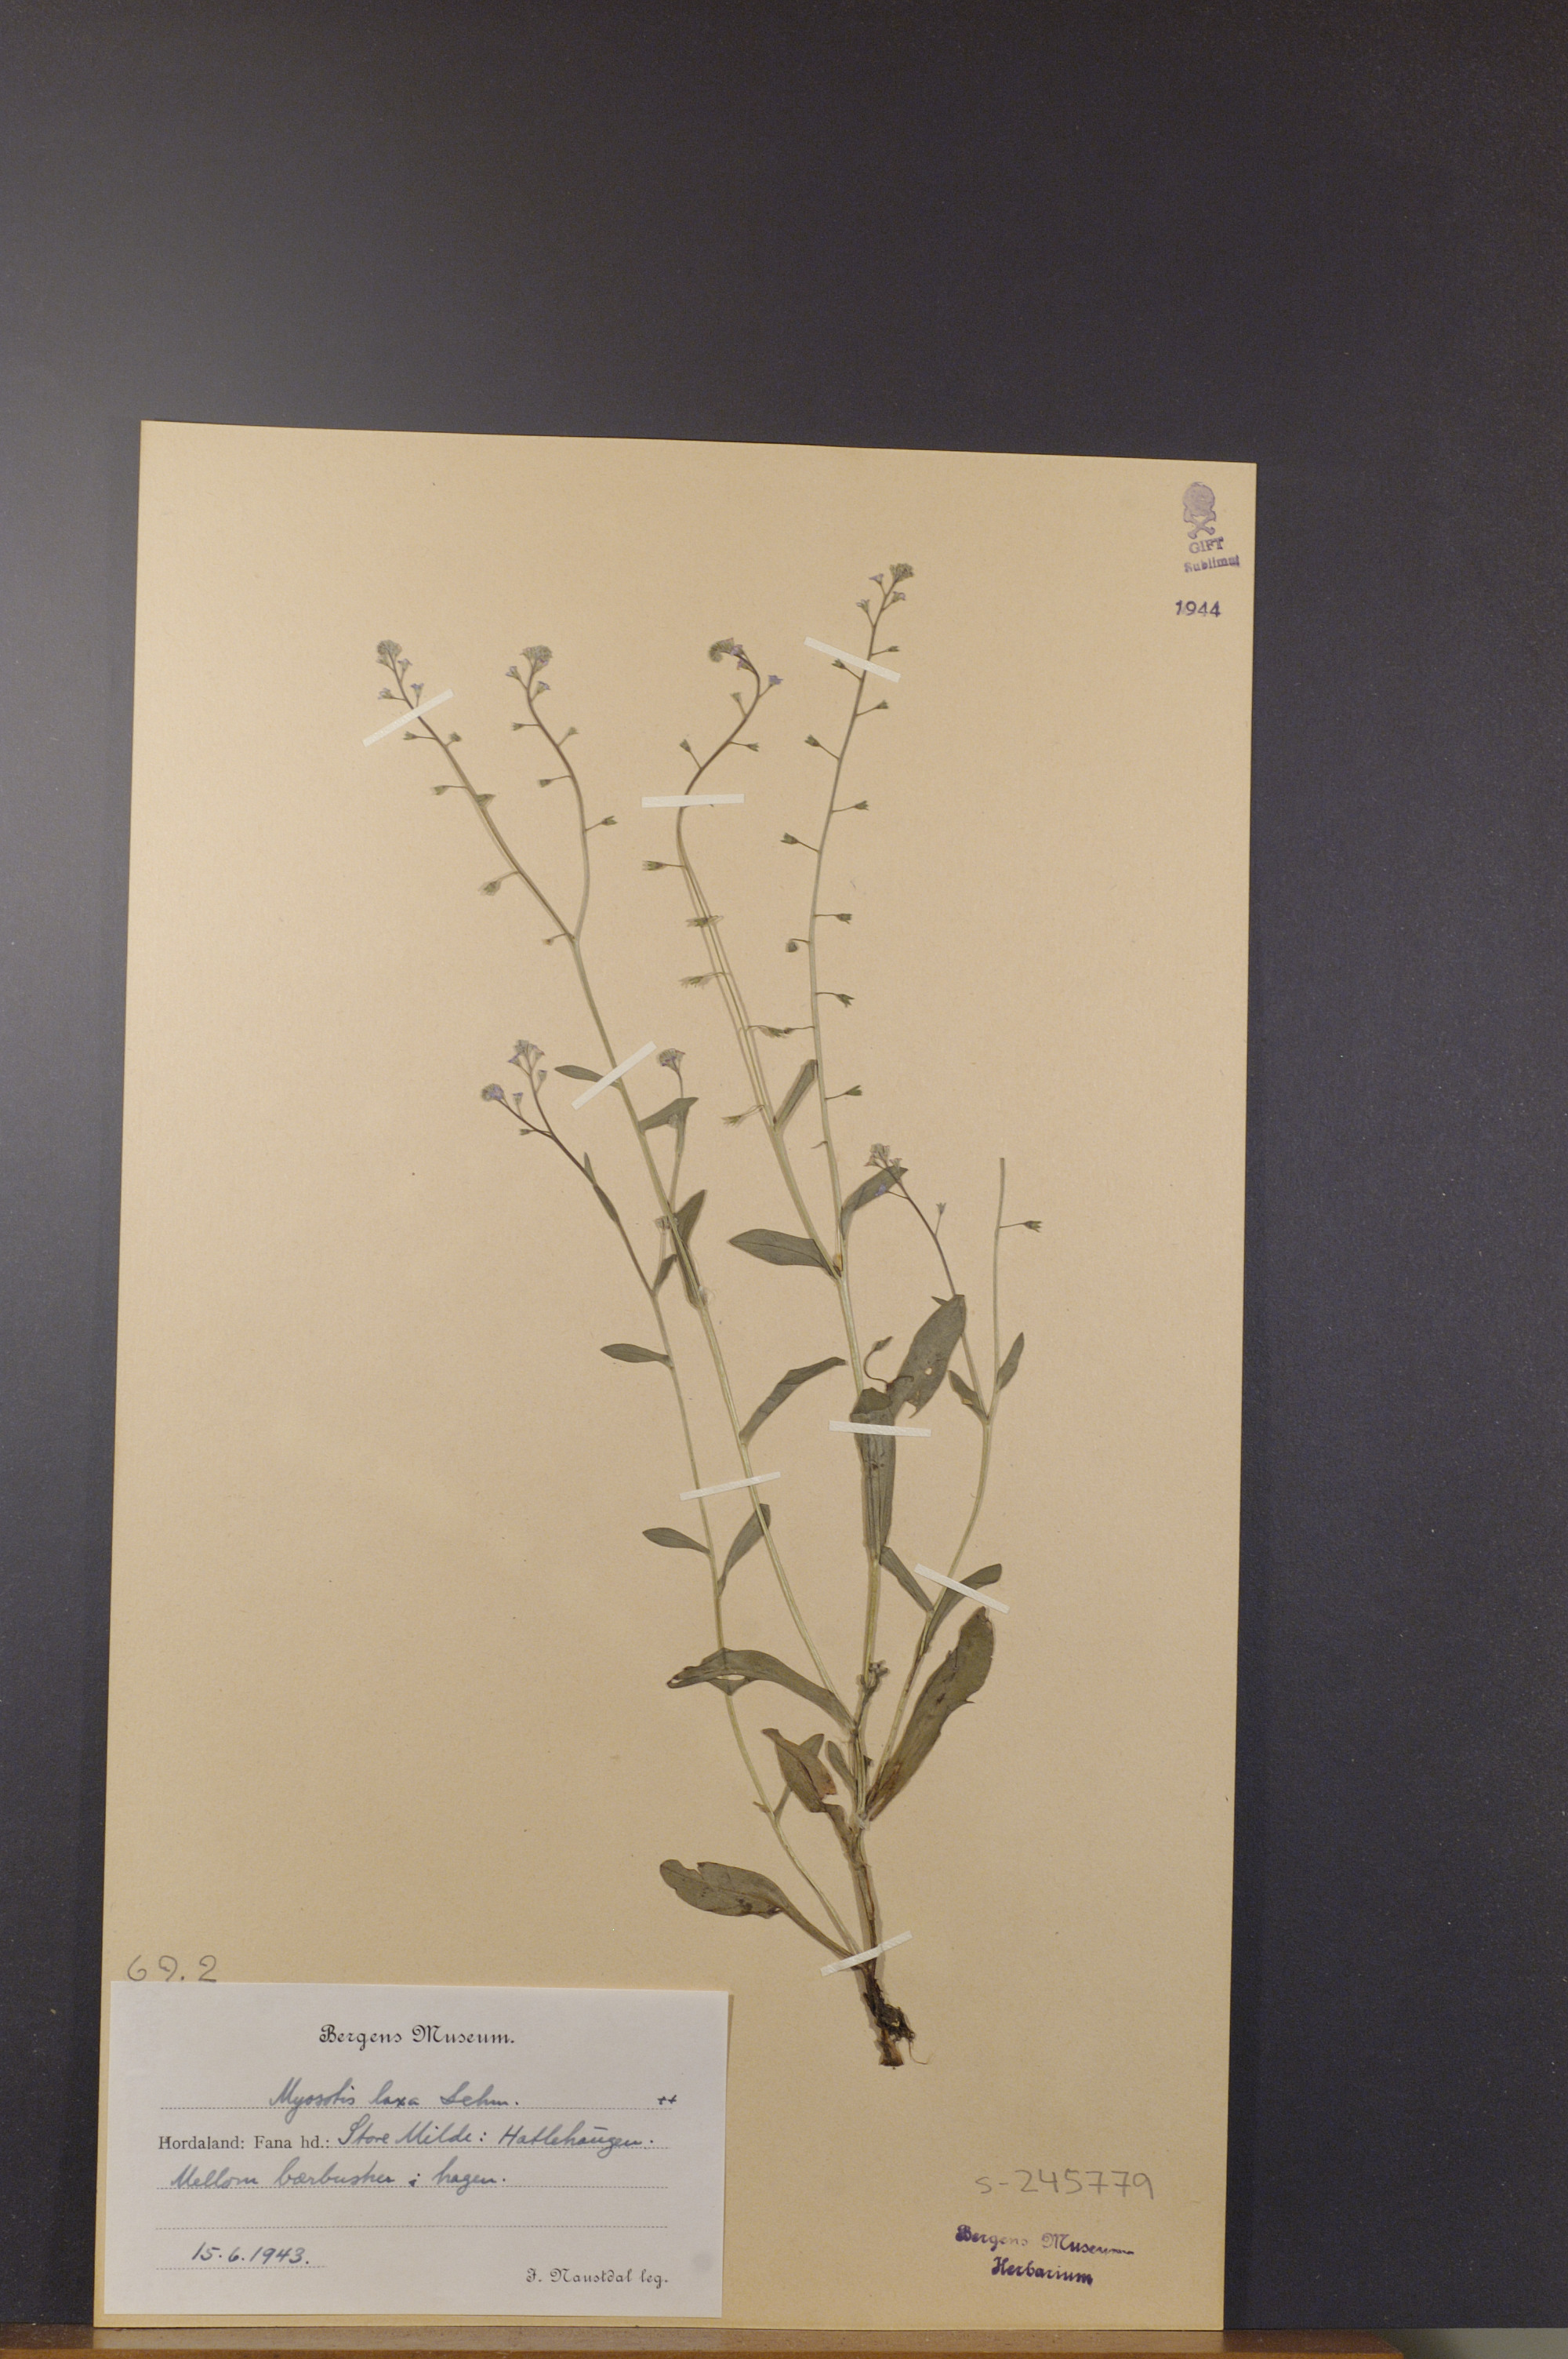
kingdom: Plantae
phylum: Tracheophyta
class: Magnoliopsida
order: Boraginales
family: Boraginaceae
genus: Myosotis
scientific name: Myosotis laxa
